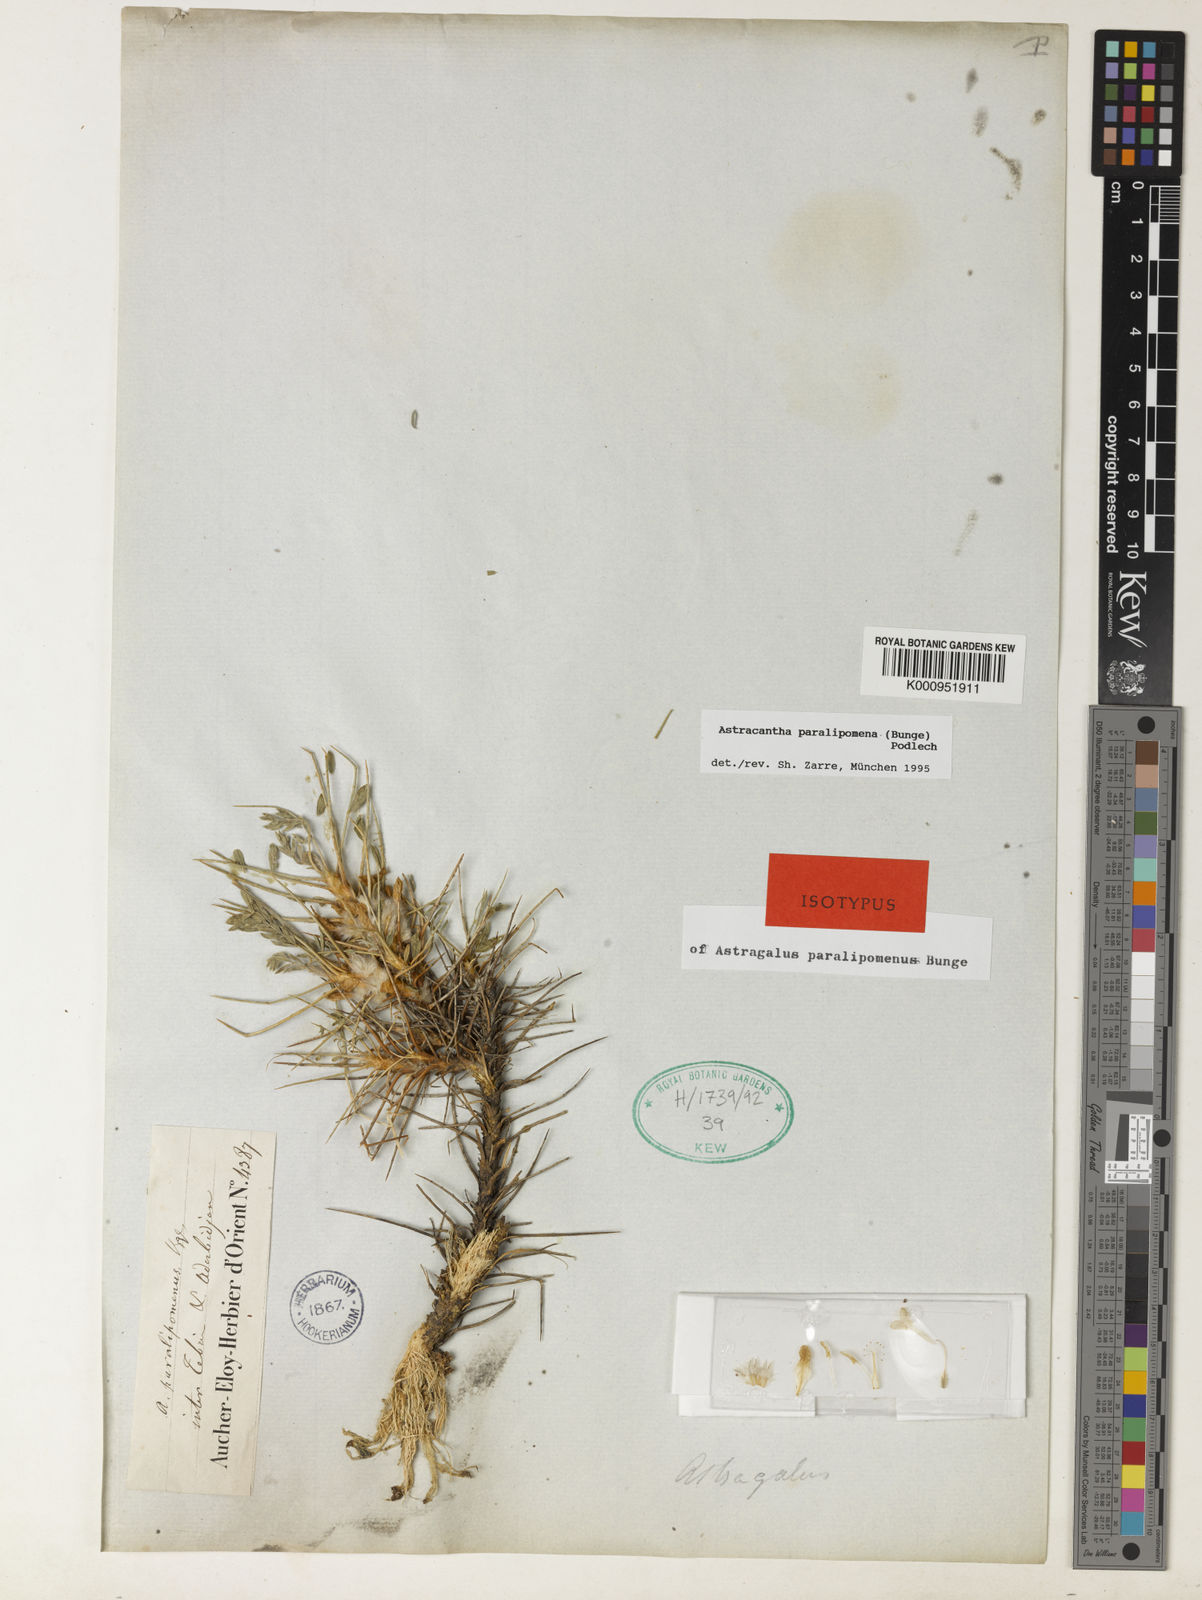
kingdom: Plantae
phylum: Tracheophyta
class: Magnoliopsida
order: Fabales
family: Fabaceae
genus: Astragalus
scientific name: Astragalus paralipomenus
